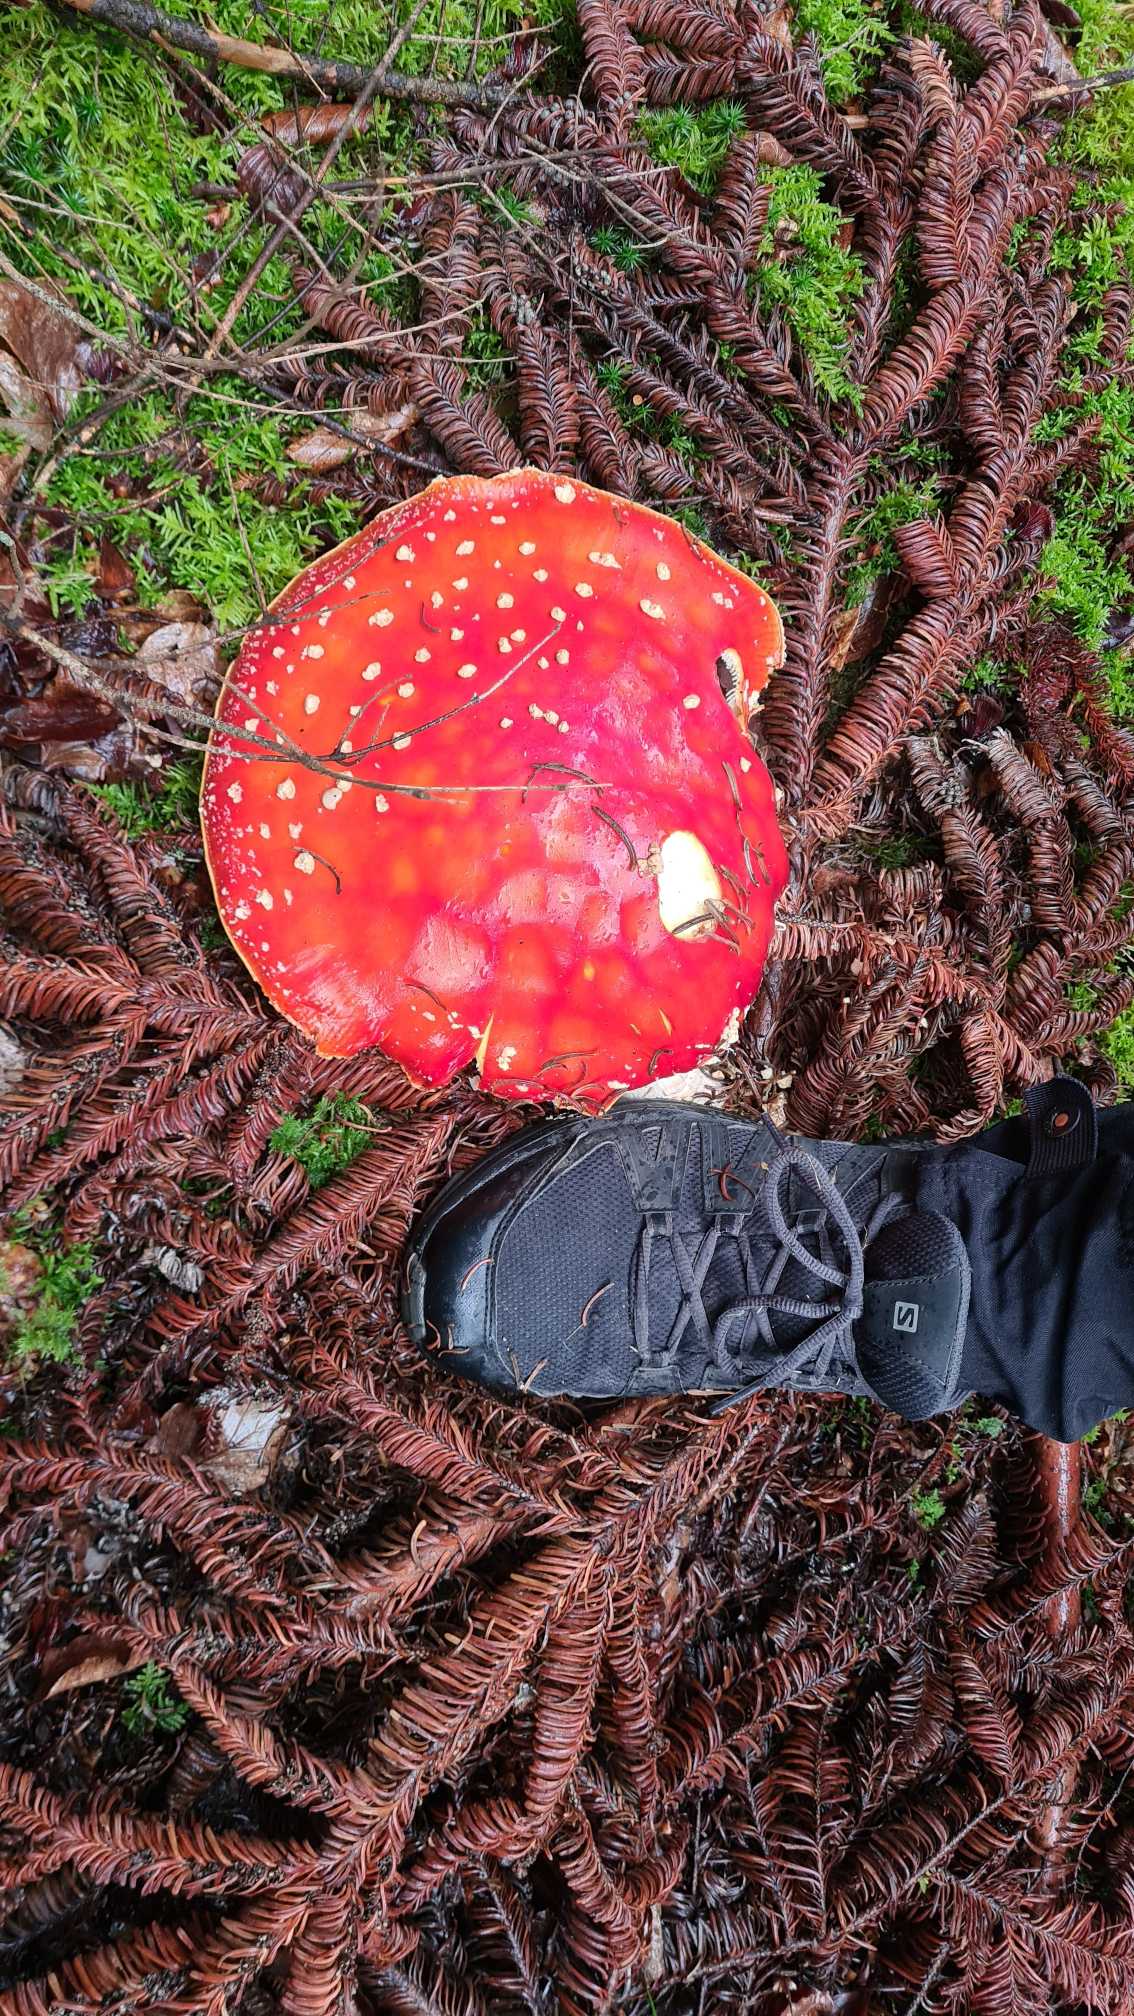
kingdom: Fungi
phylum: Basidiomycota
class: Agaricomycetes
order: Agaricales
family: Amanitaceae
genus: Amanita
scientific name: Amanita muscaria
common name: Rød fluesvamp
